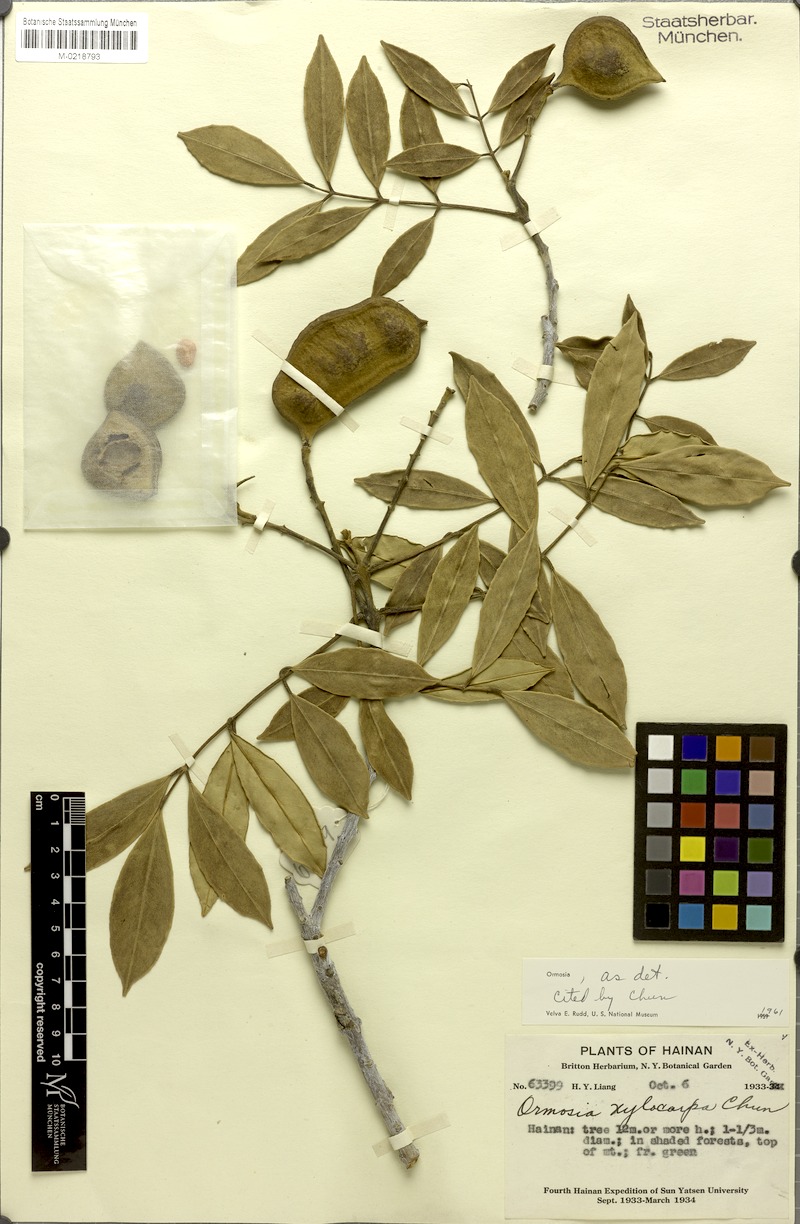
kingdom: Plantae
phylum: Tracheophyta
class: Magnoliopsida
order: Fabales
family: Fabaceae
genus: Ormosia
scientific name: Ormosia xylocarpa
